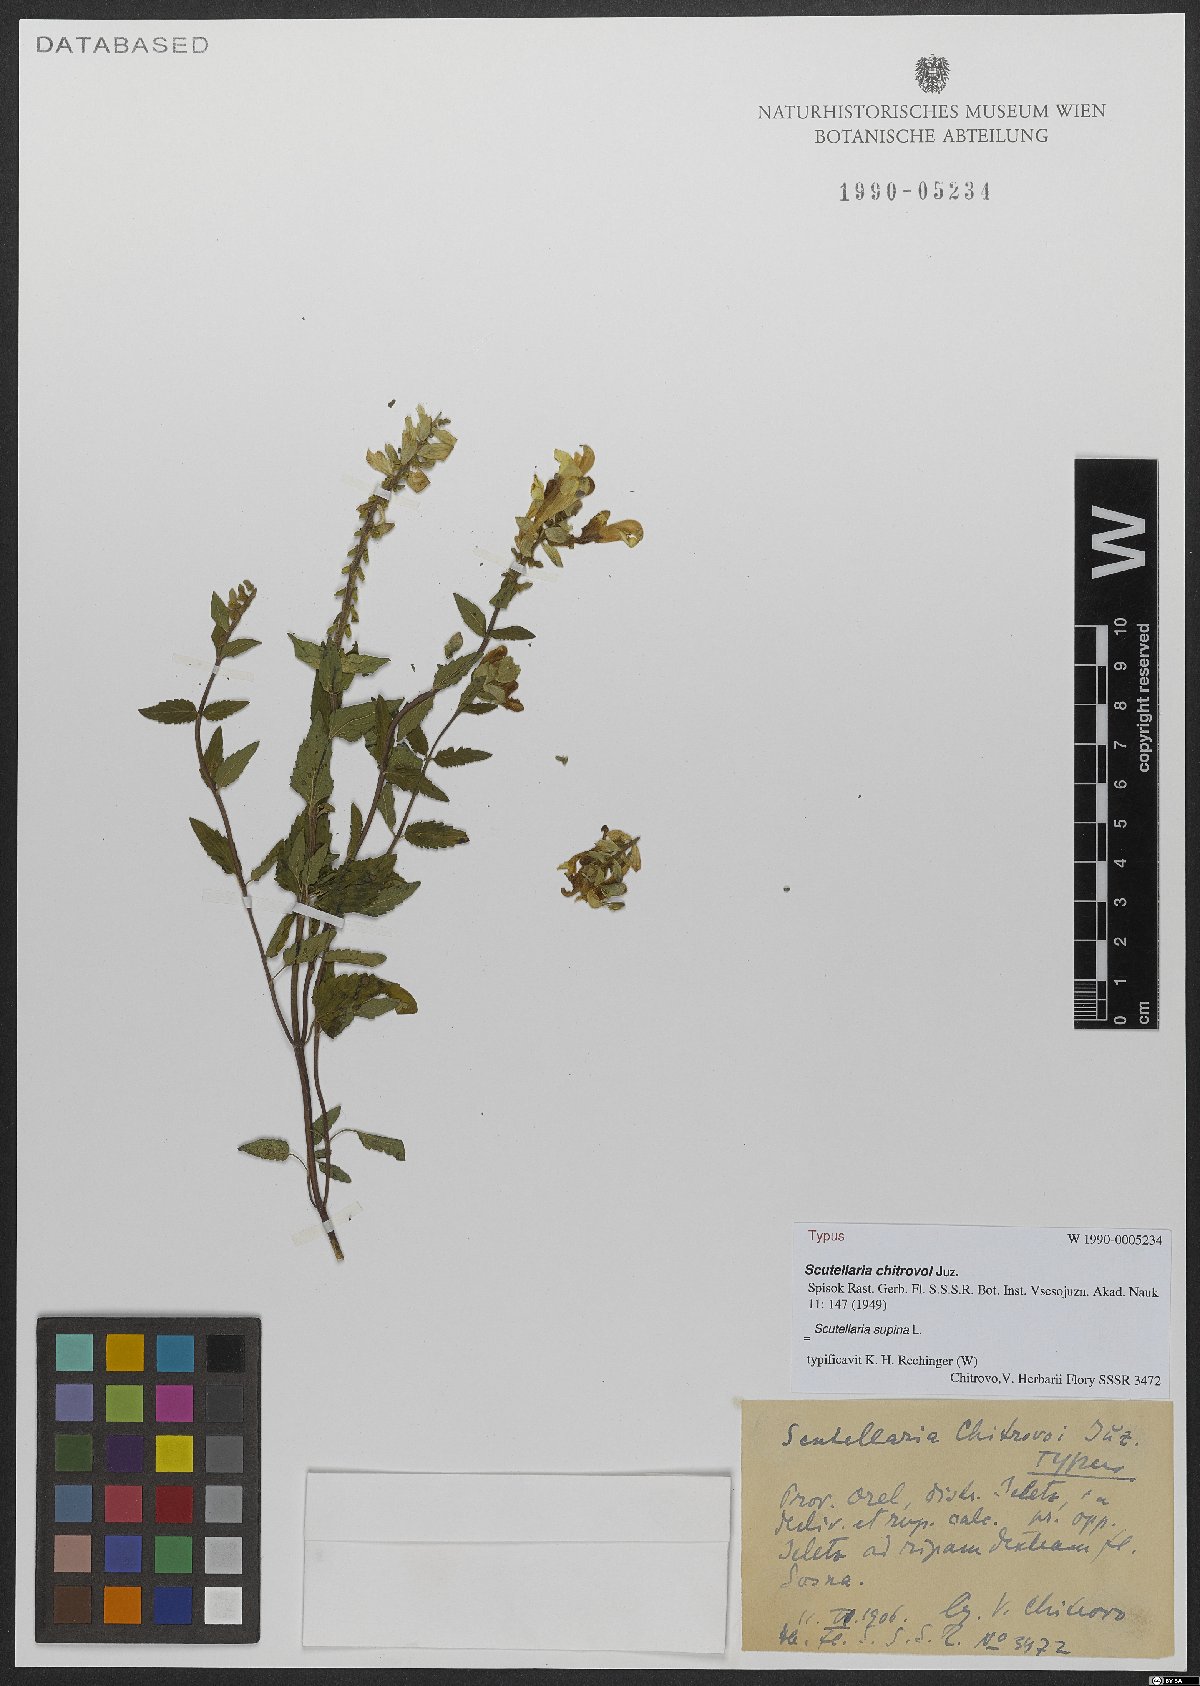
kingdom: Plantae
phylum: Tracheophyta
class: Magnoliopsida
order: Lamiales
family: Lamiaceae
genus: Scutellaria
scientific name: Scutellaria supina
